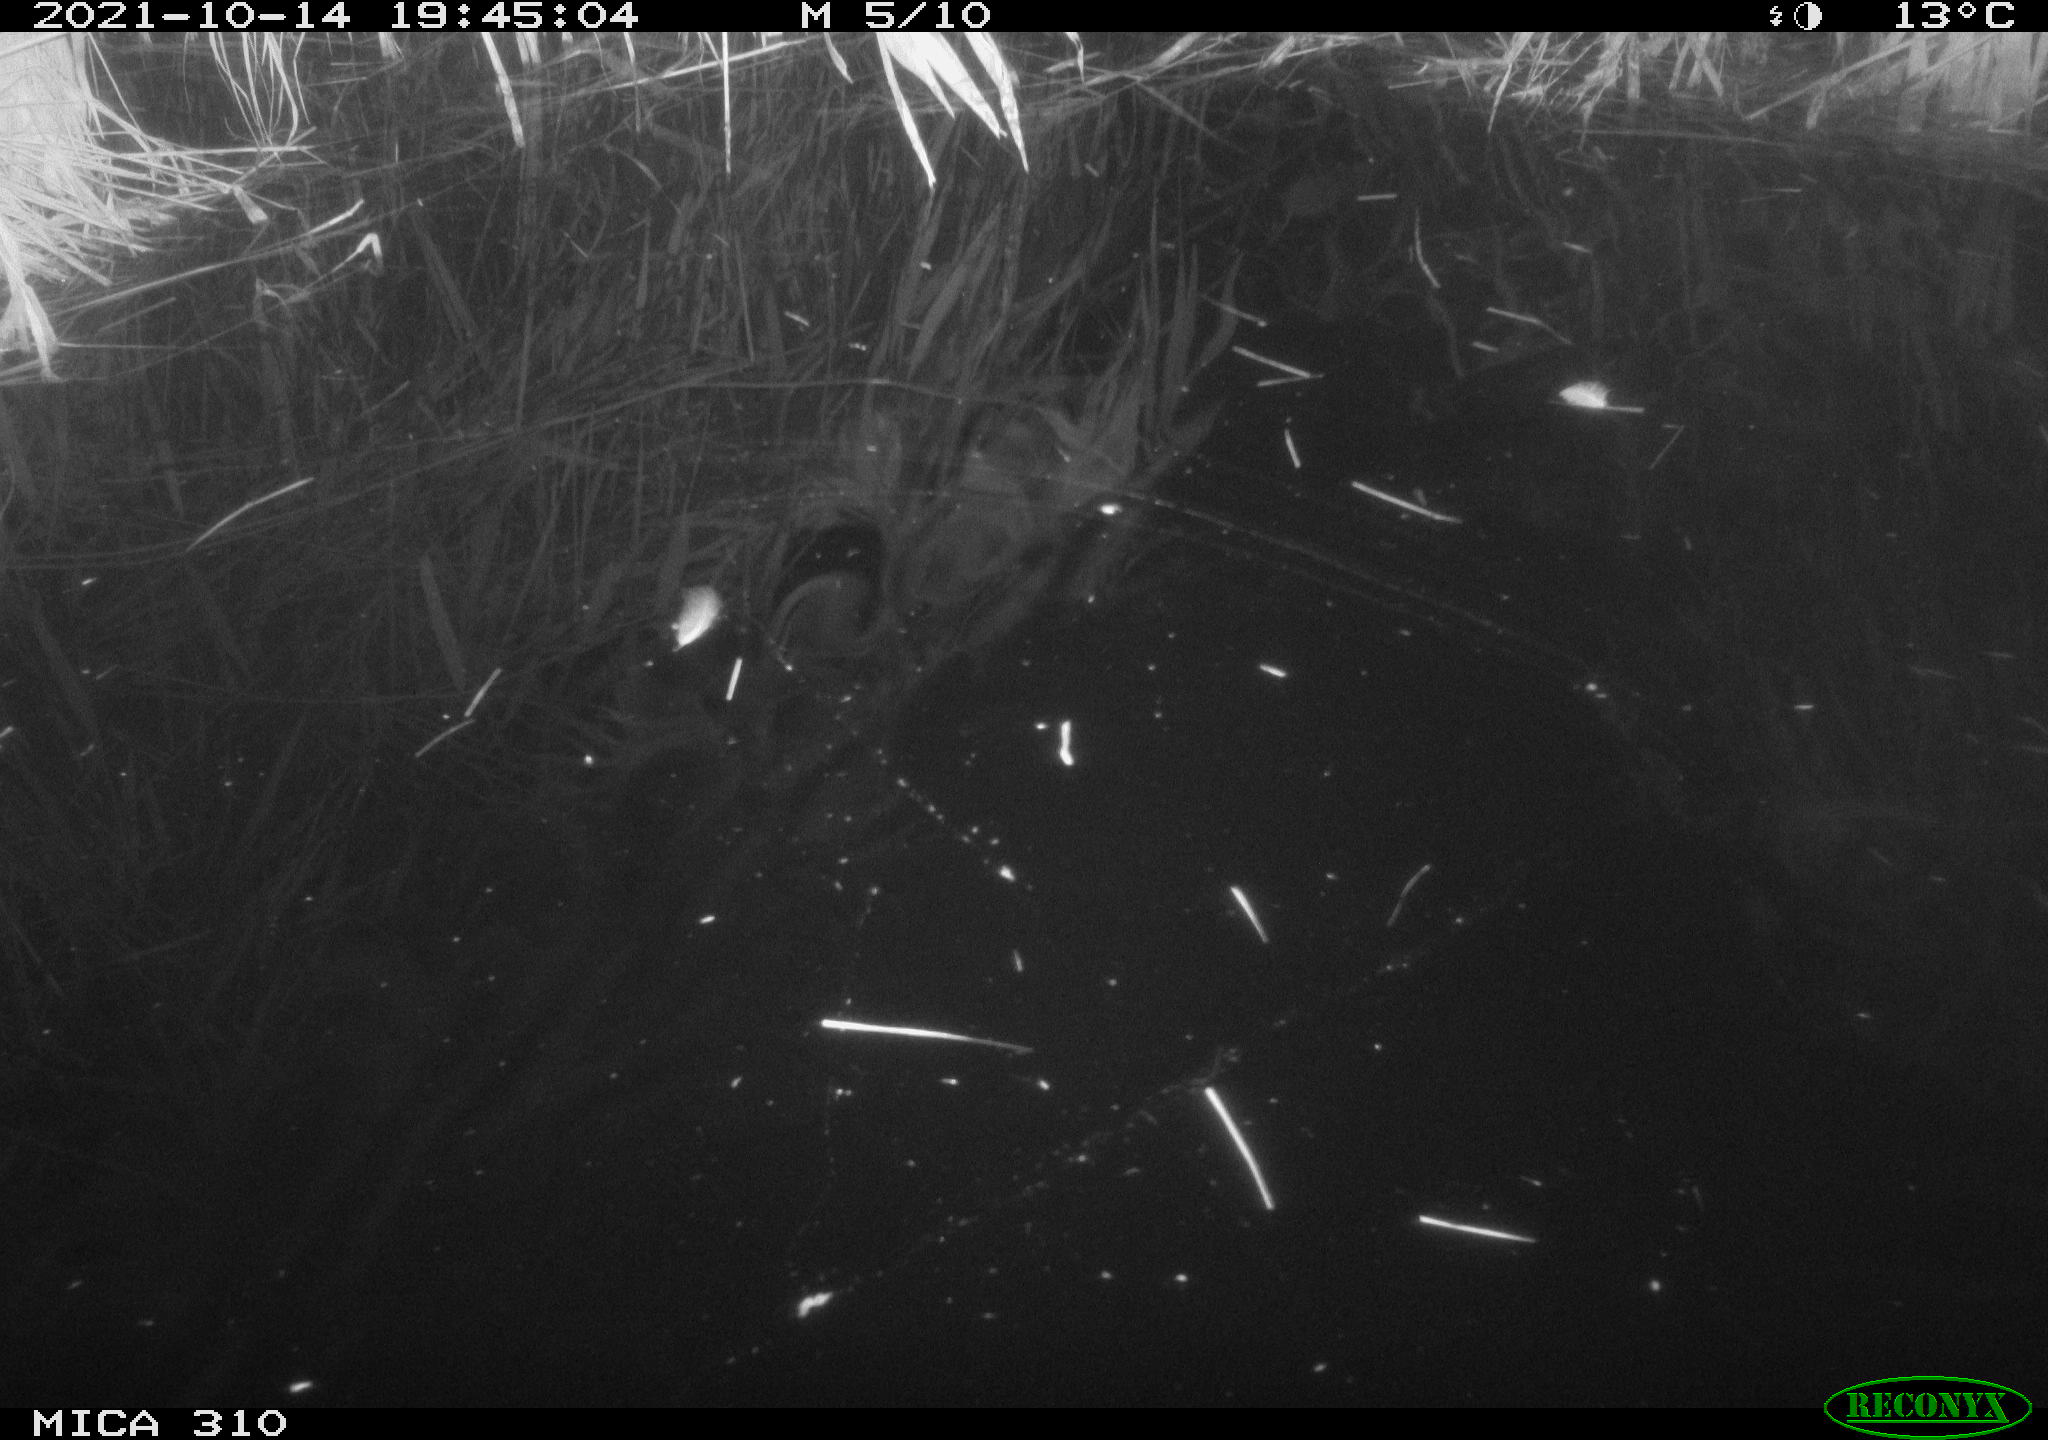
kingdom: Animalia
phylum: Chordata
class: Mammalia
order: Rodentia
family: Muridae
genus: Rattus
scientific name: Rattus norvegicus
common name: Brown rat
